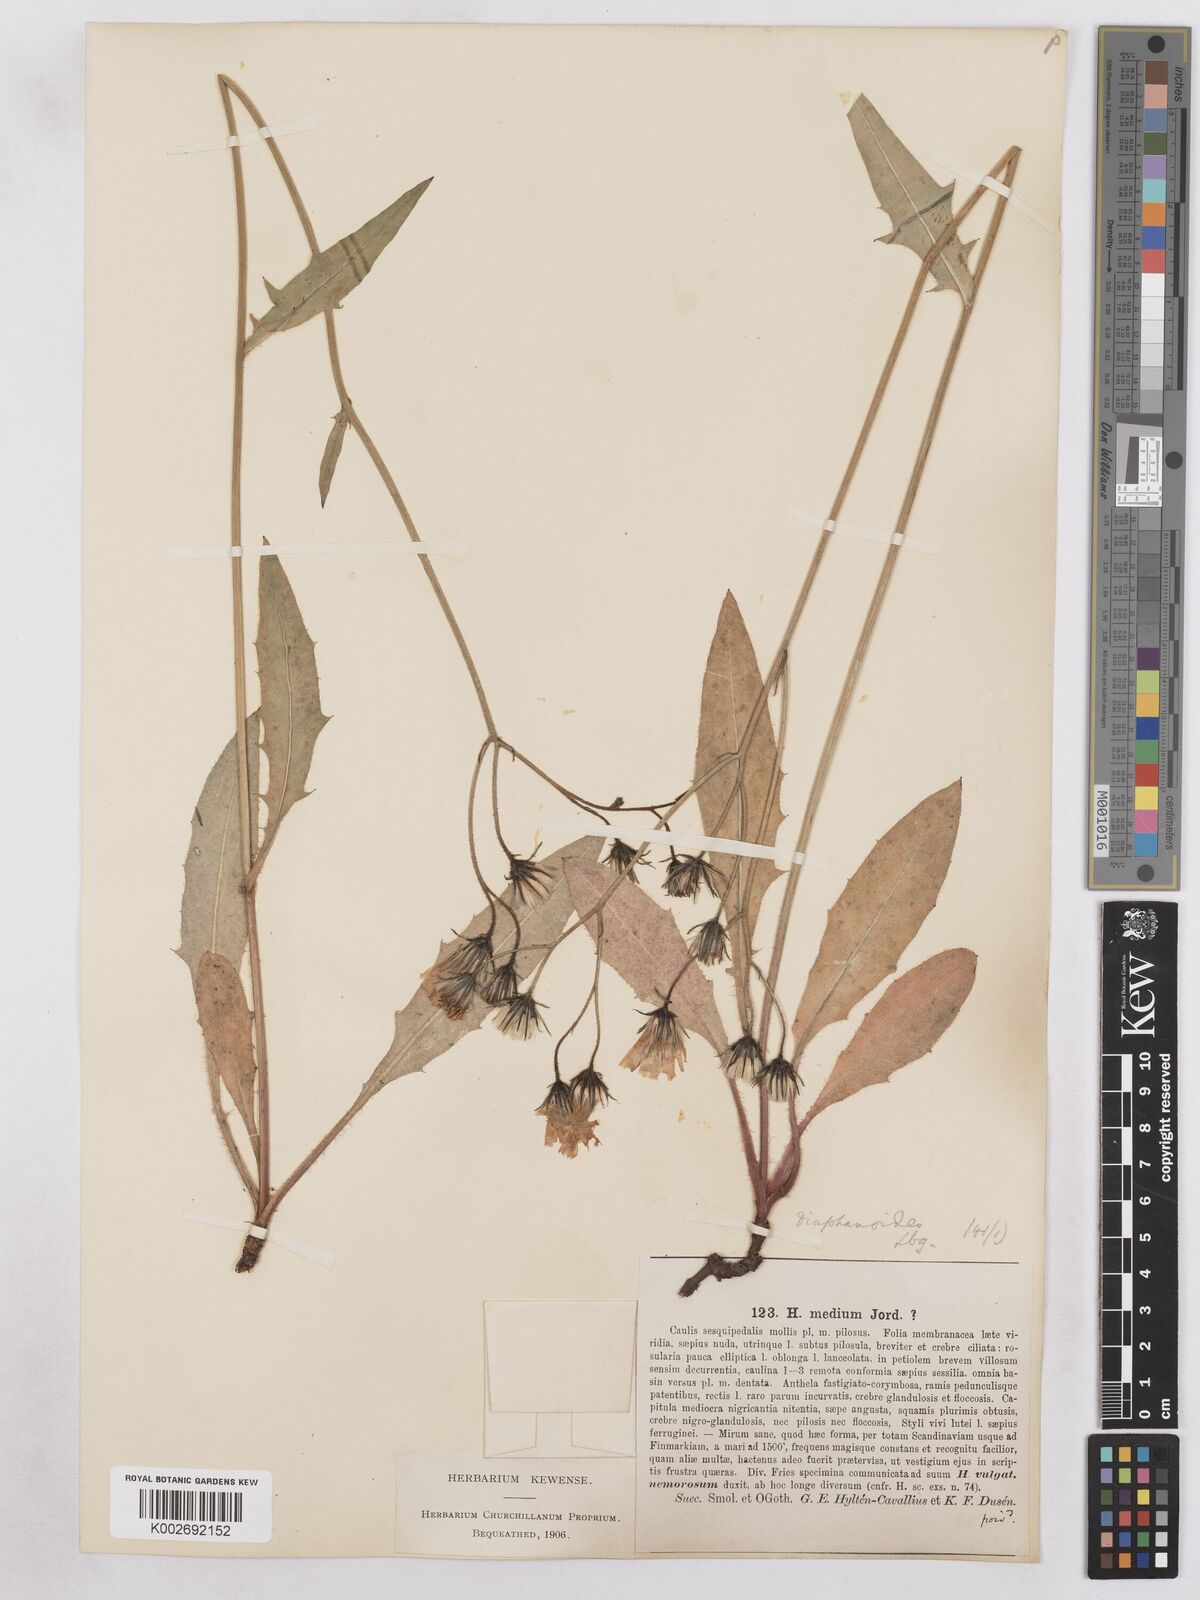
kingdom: Plantae
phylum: Tracheophyta
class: Magnoliopsida
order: Asterales
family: Asteraceae
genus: Hieracium
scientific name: Hieracium diaphanoides
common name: Fine-bracted hawkweed
